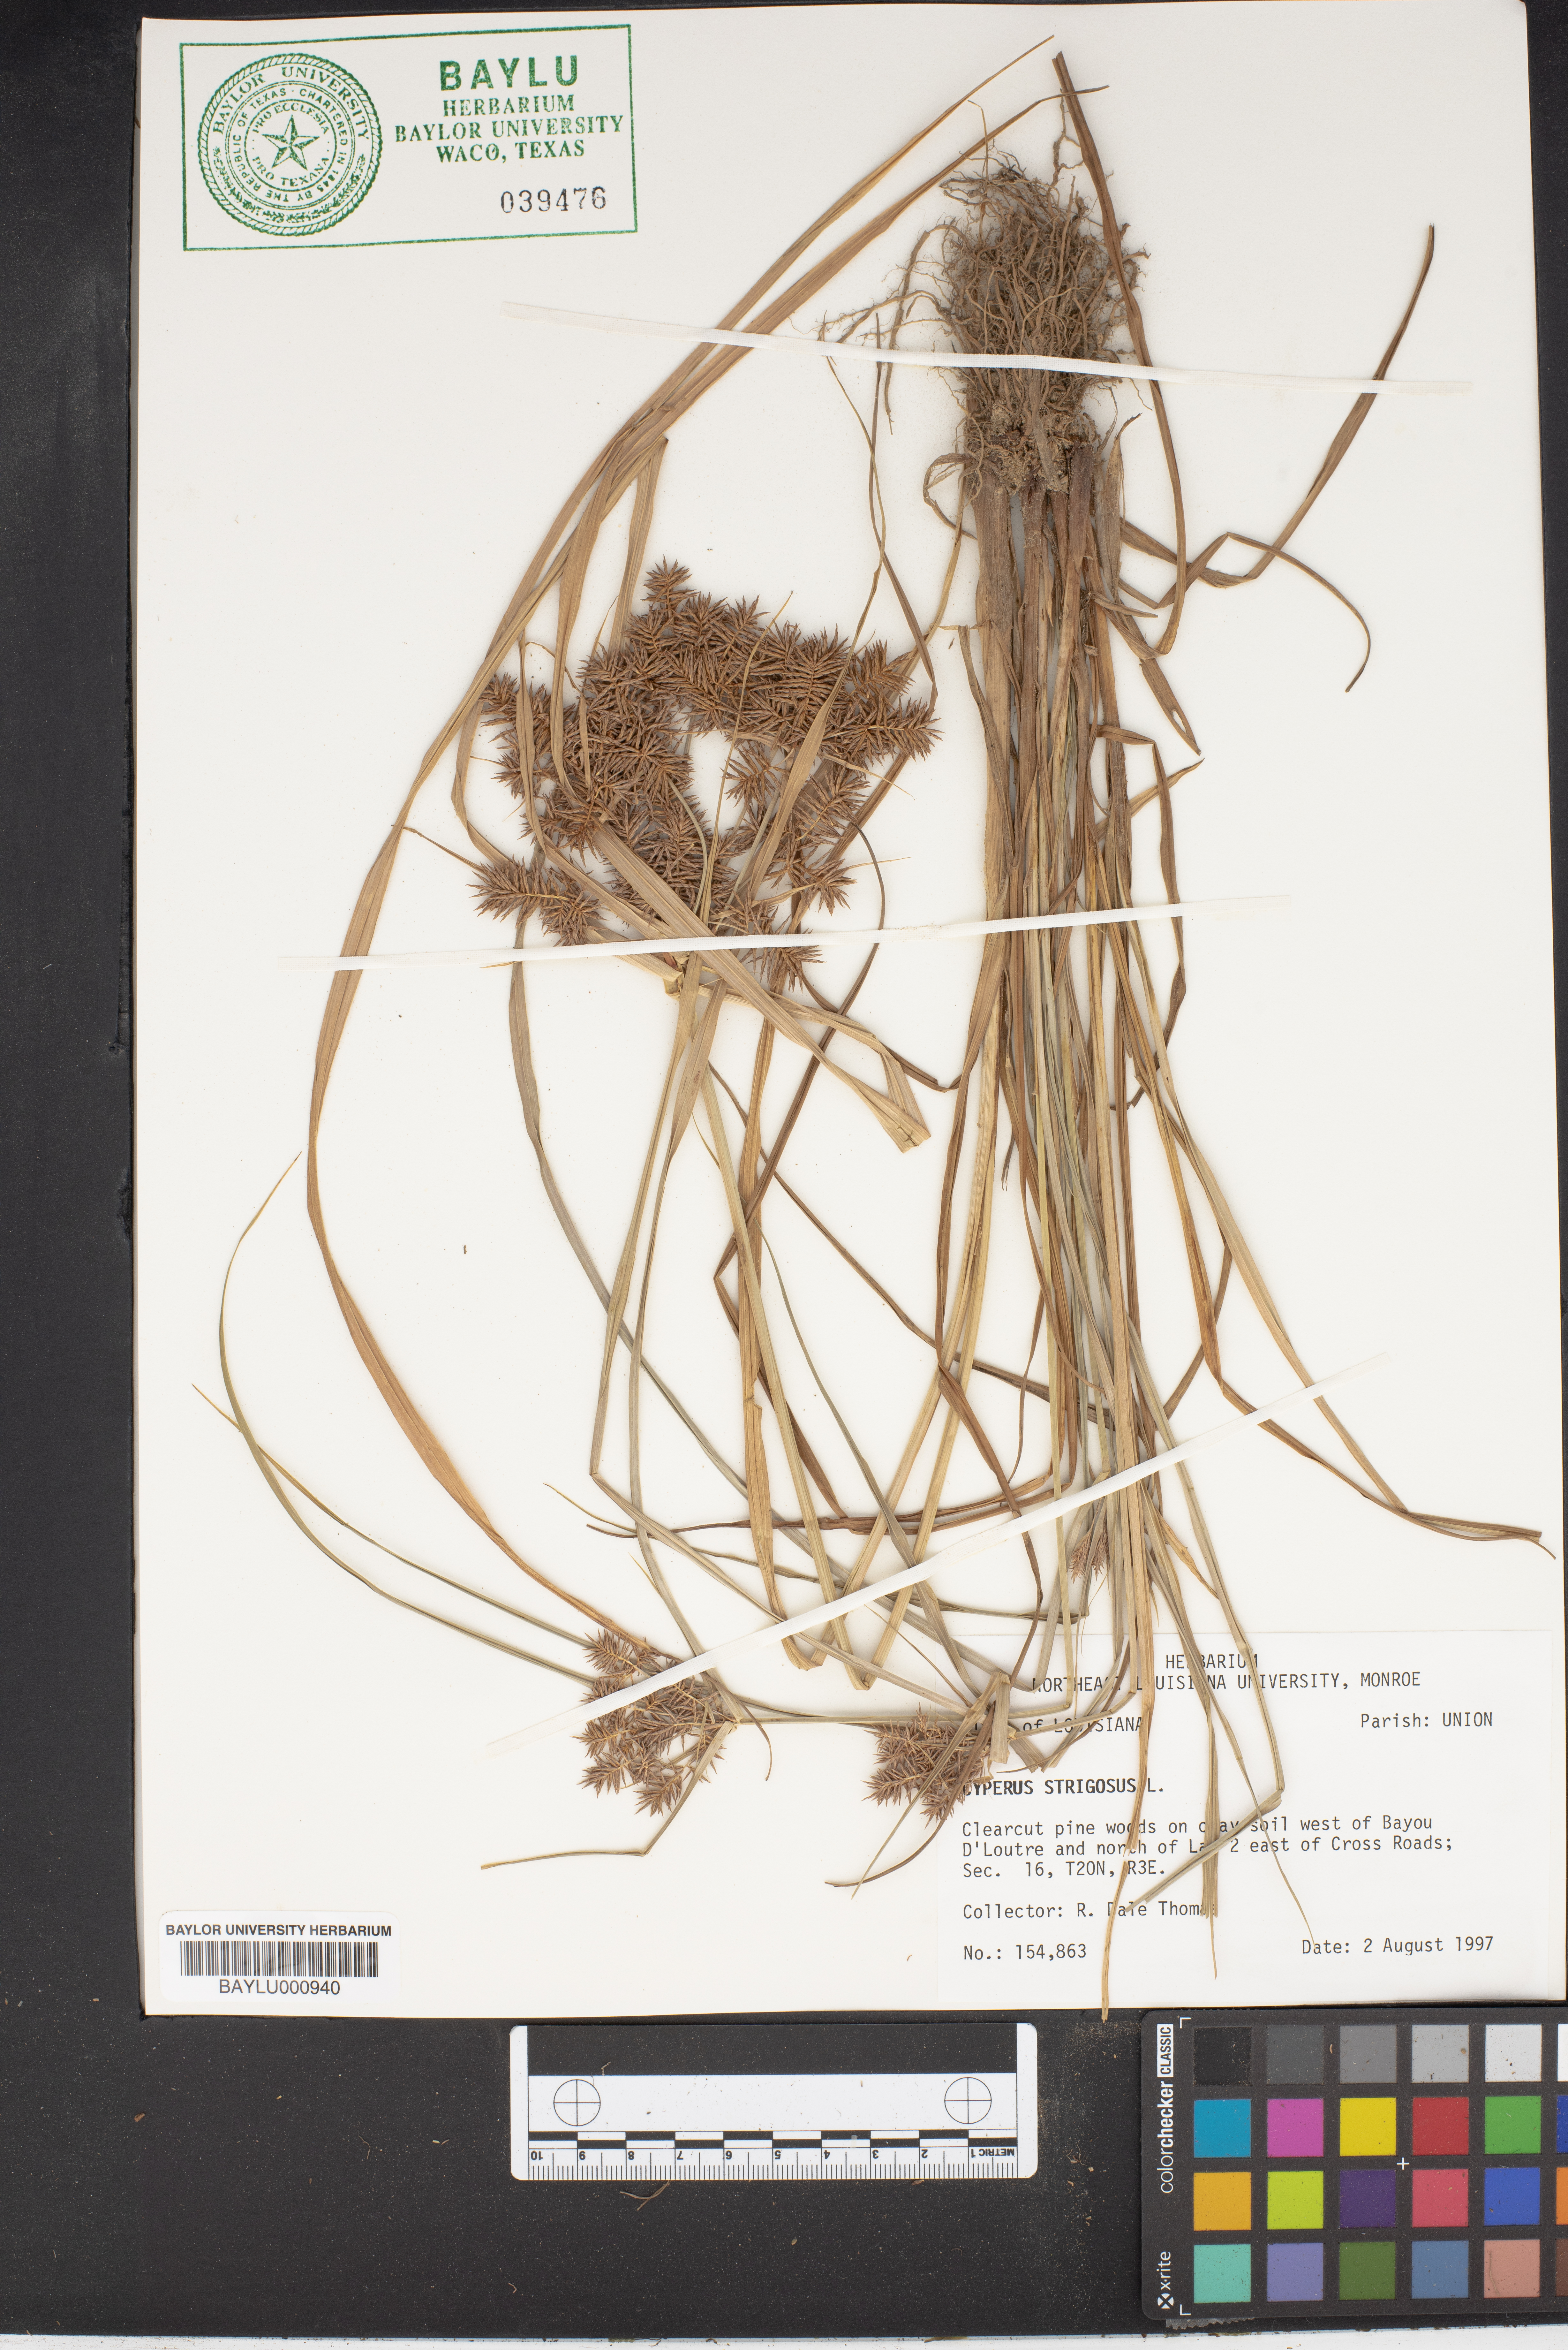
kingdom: Plantae
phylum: Tracheophyta
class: Liliopsida
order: Poales
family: Cyperaceae
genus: Cyperus
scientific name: Cyperus strigosus
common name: False nutsedge
